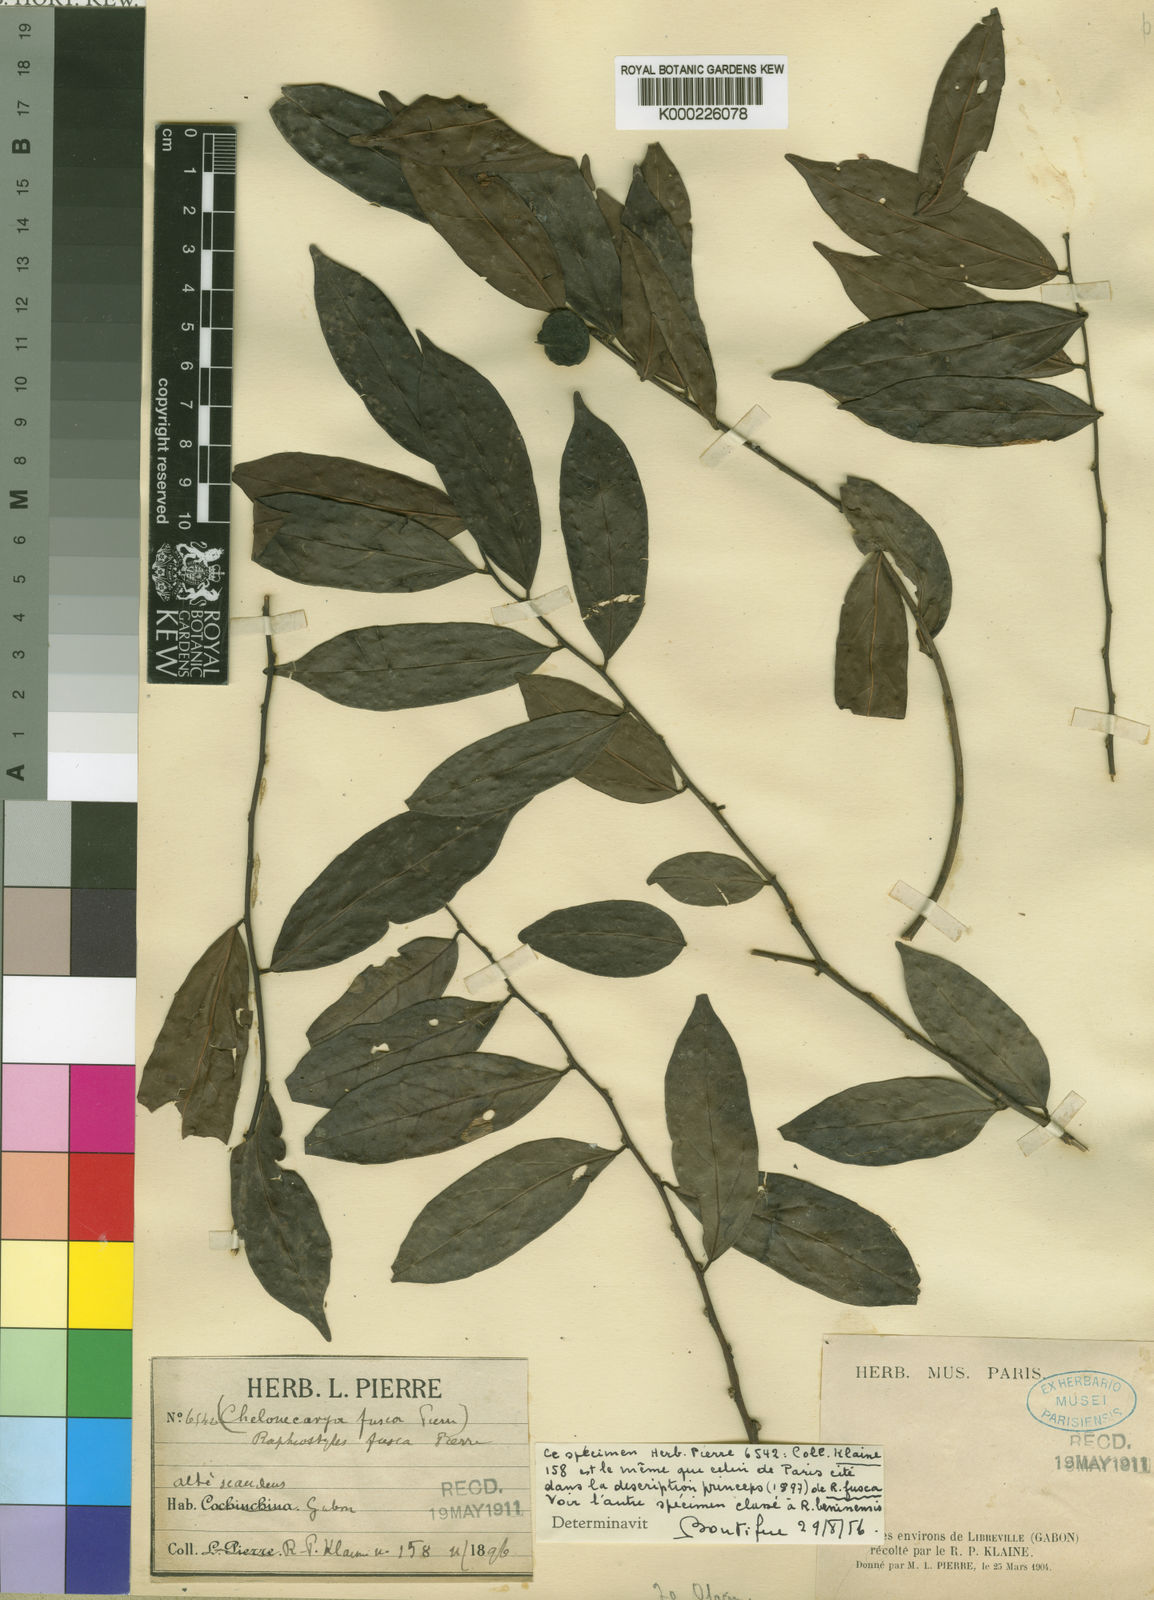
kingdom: Plantae
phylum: Tracheophyta
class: Magnoliopsida
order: Metteniusales
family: Metteniusaceae
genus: Rhaphiostylis
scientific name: Rhaphiostylis fusca
